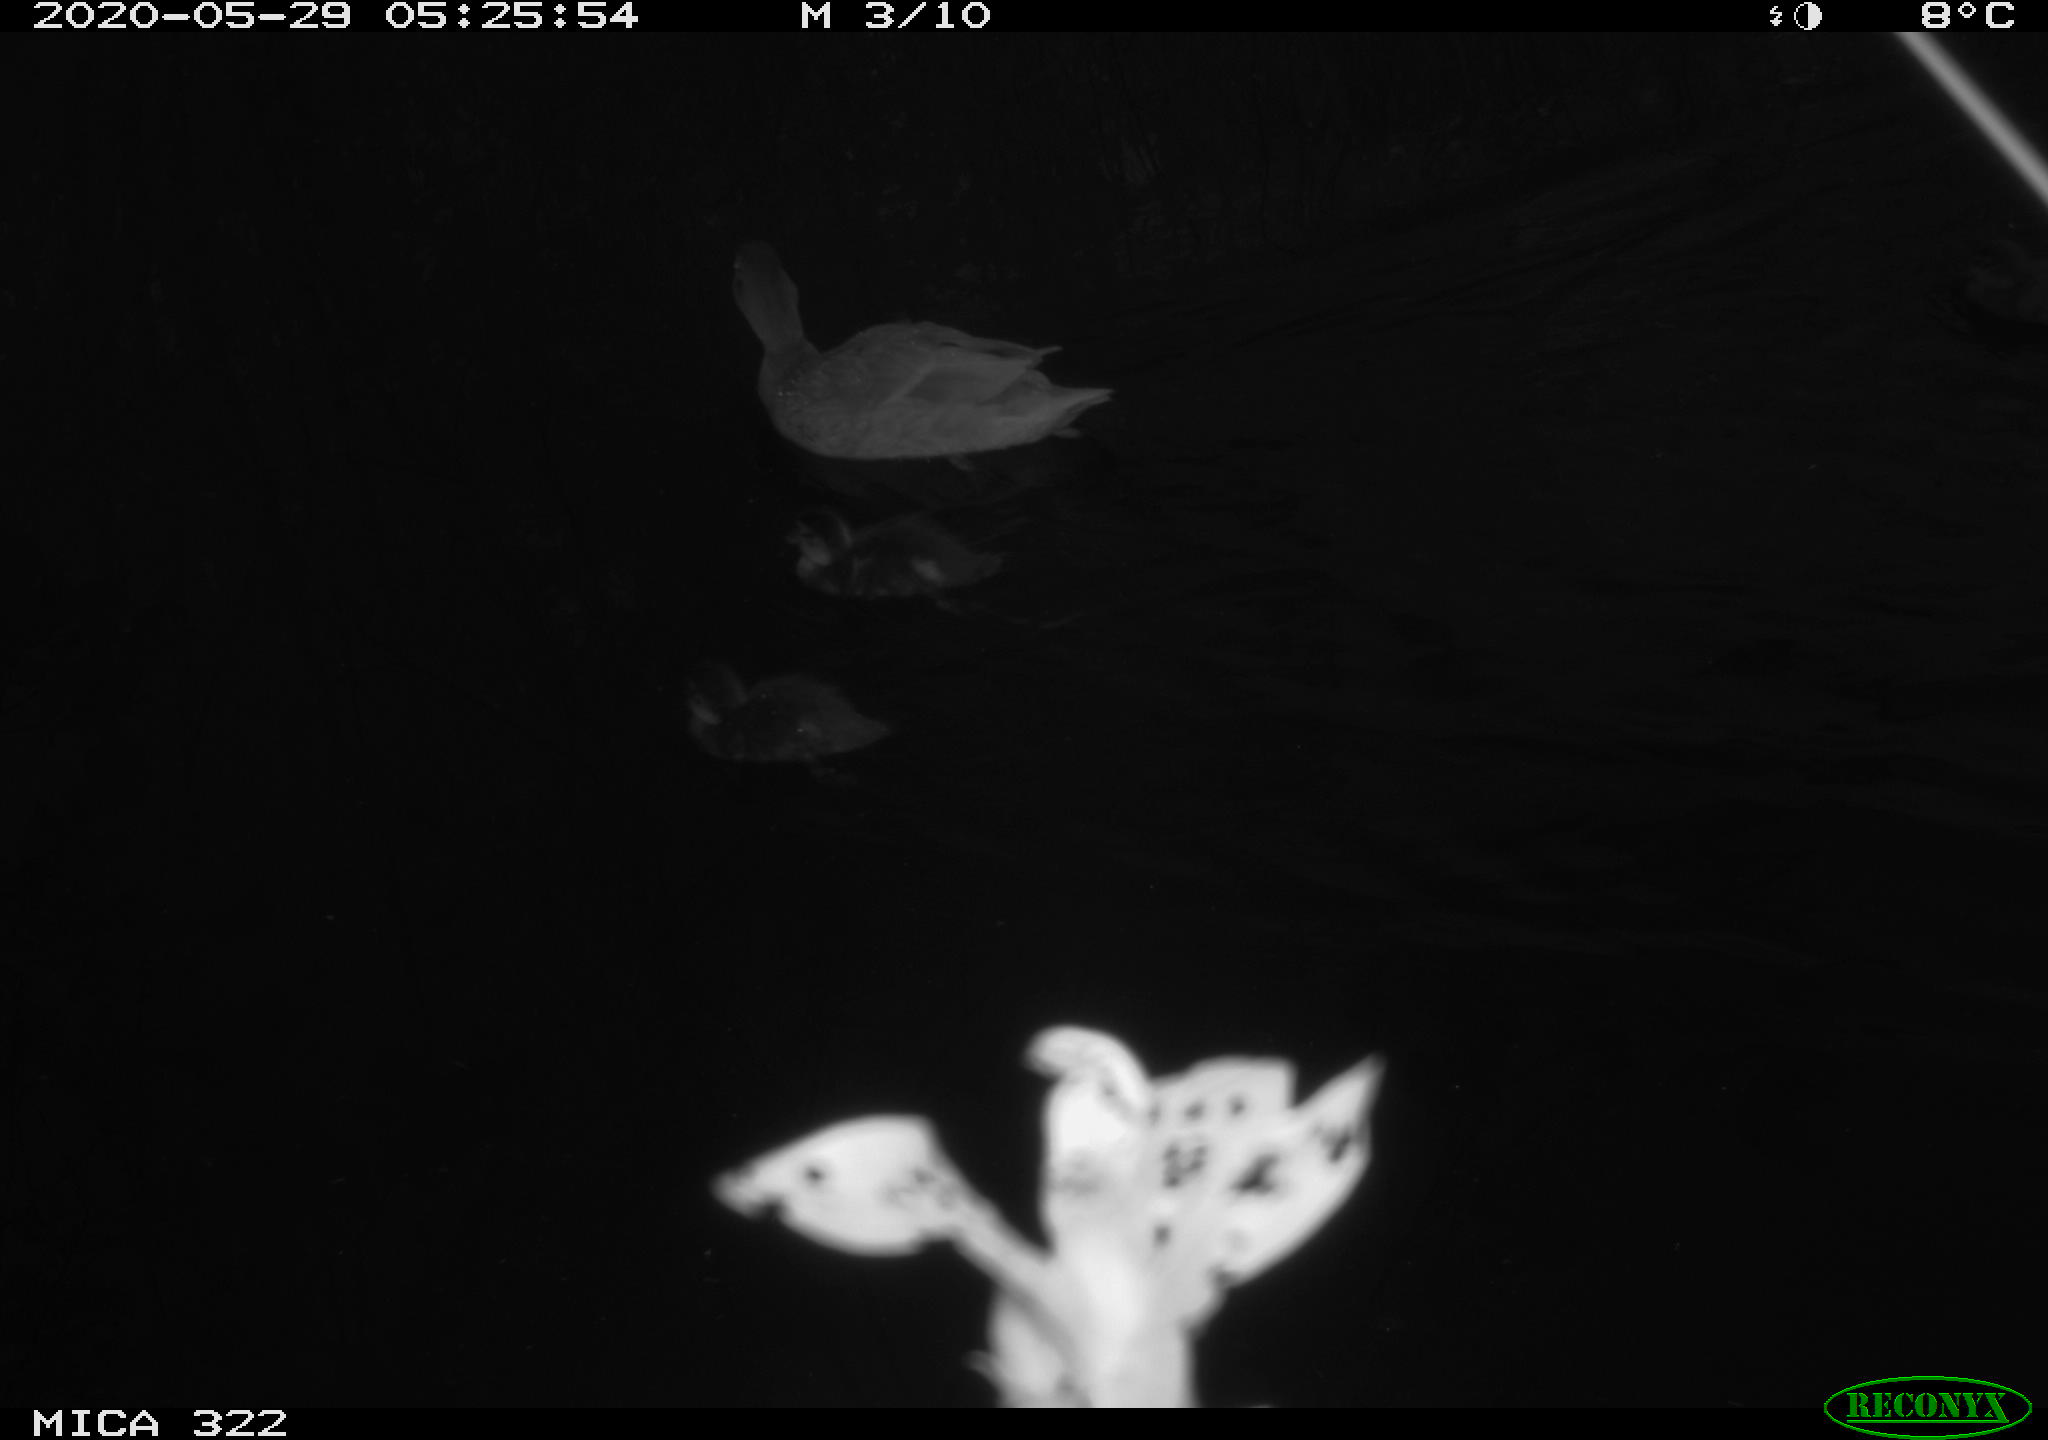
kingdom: Animalia
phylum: Chordata
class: Aves
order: Anseriformes
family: Anatidae
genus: Anas
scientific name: Anas platyrhynchos
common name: Mallard
